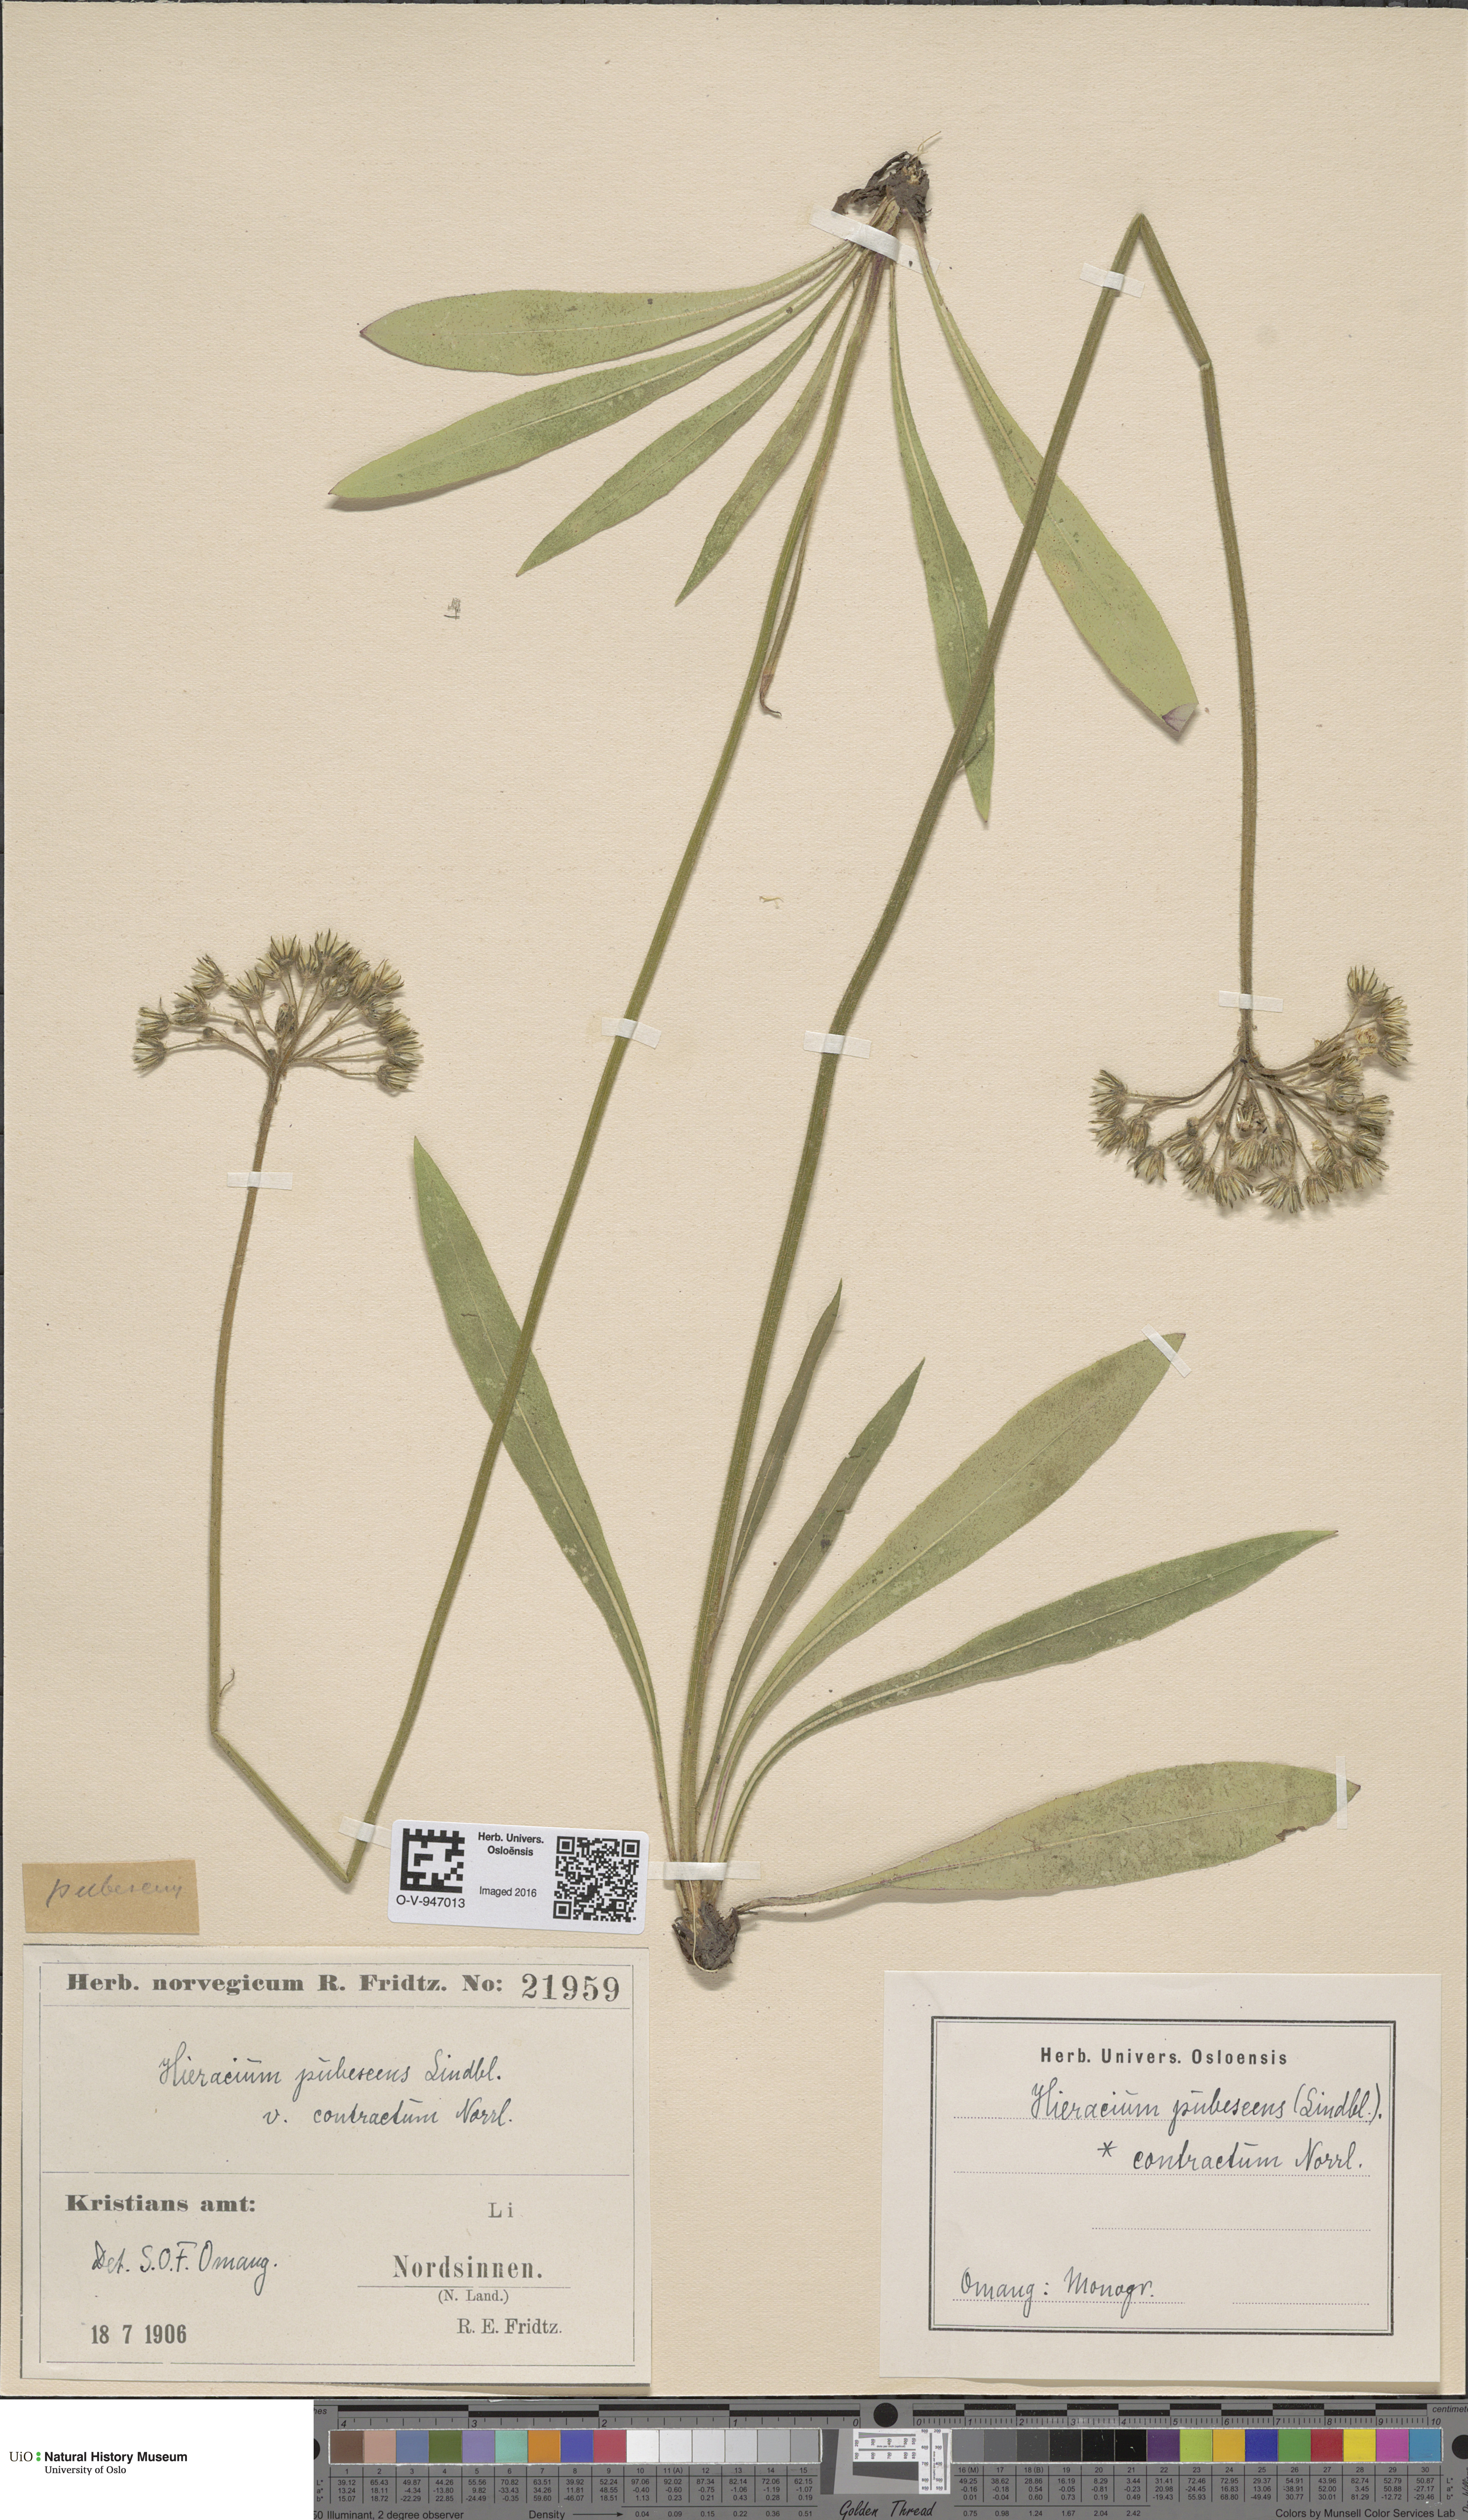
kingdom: Plantae
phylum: Tracheophyta
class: Magnoliopsida
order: Asterales
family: Asteraceae
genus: Pilosella
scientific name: Pilosella cymosa
